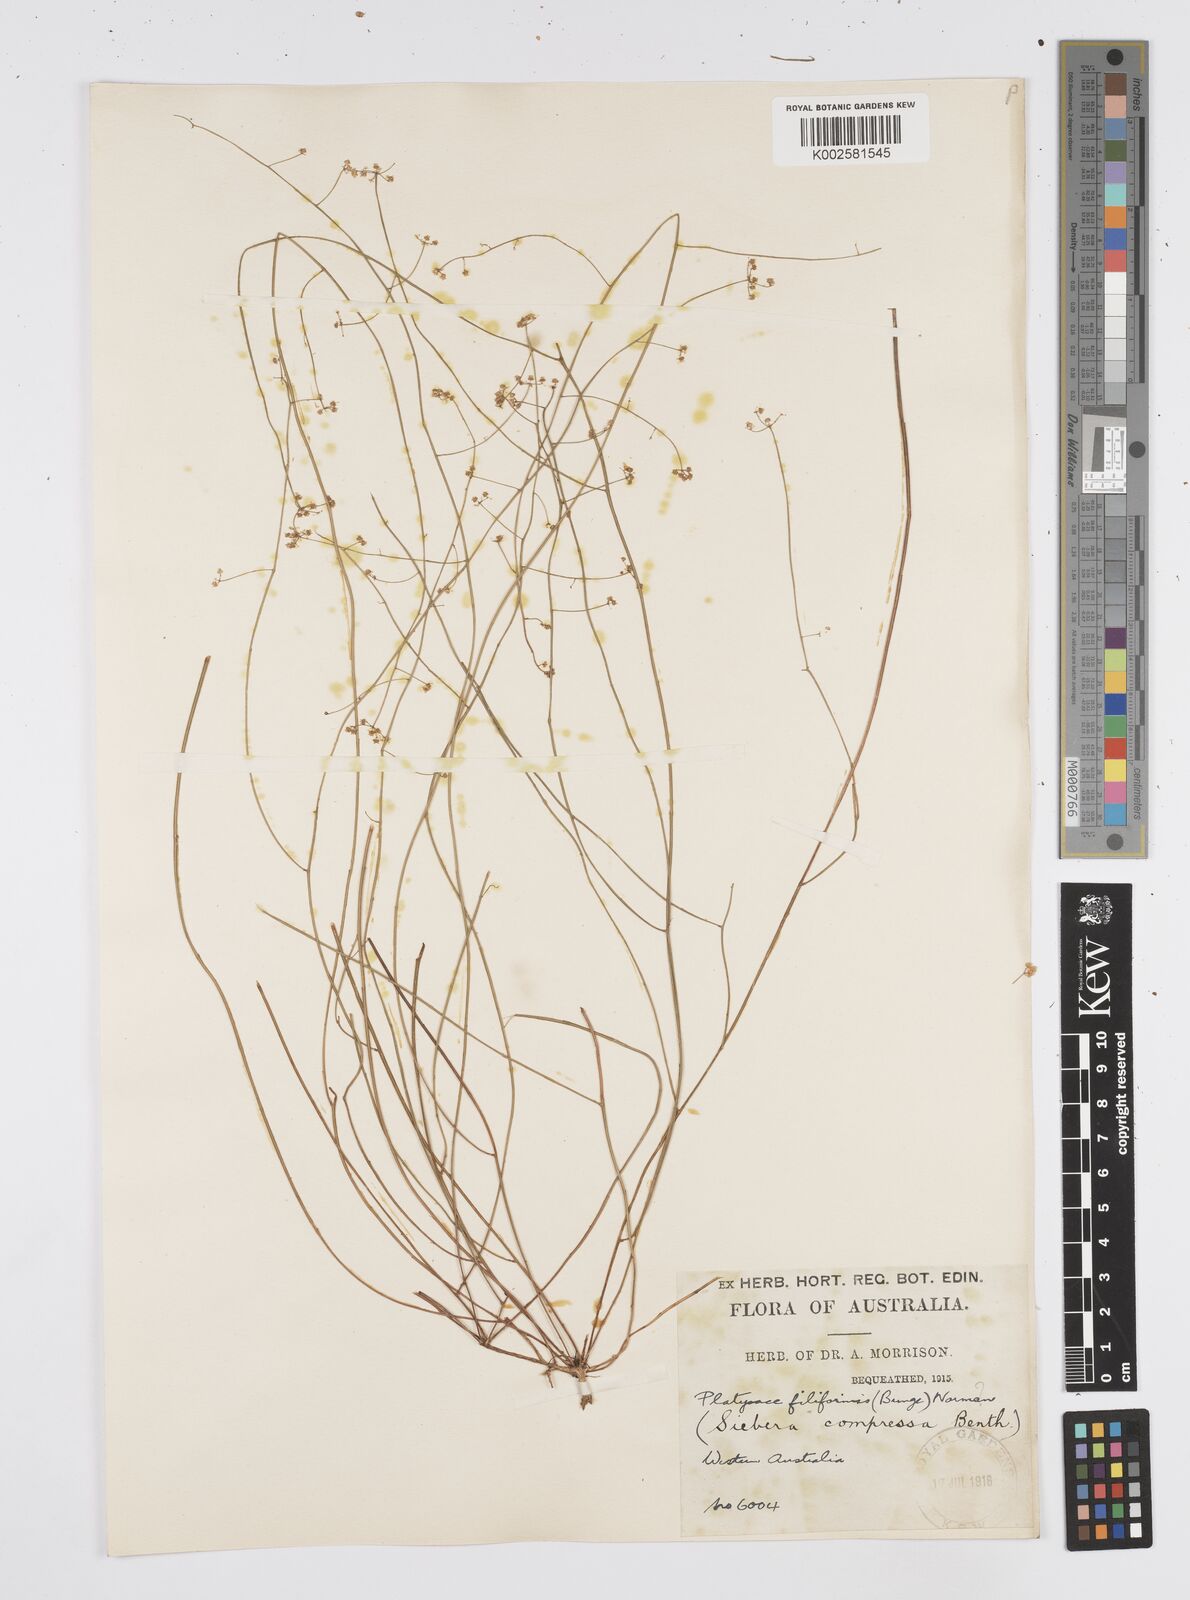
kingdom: Plantae
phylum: Tracheophyta
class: Magnoliopsida
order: Apiales
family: Apiaceae
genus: Centella
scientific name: Centella
